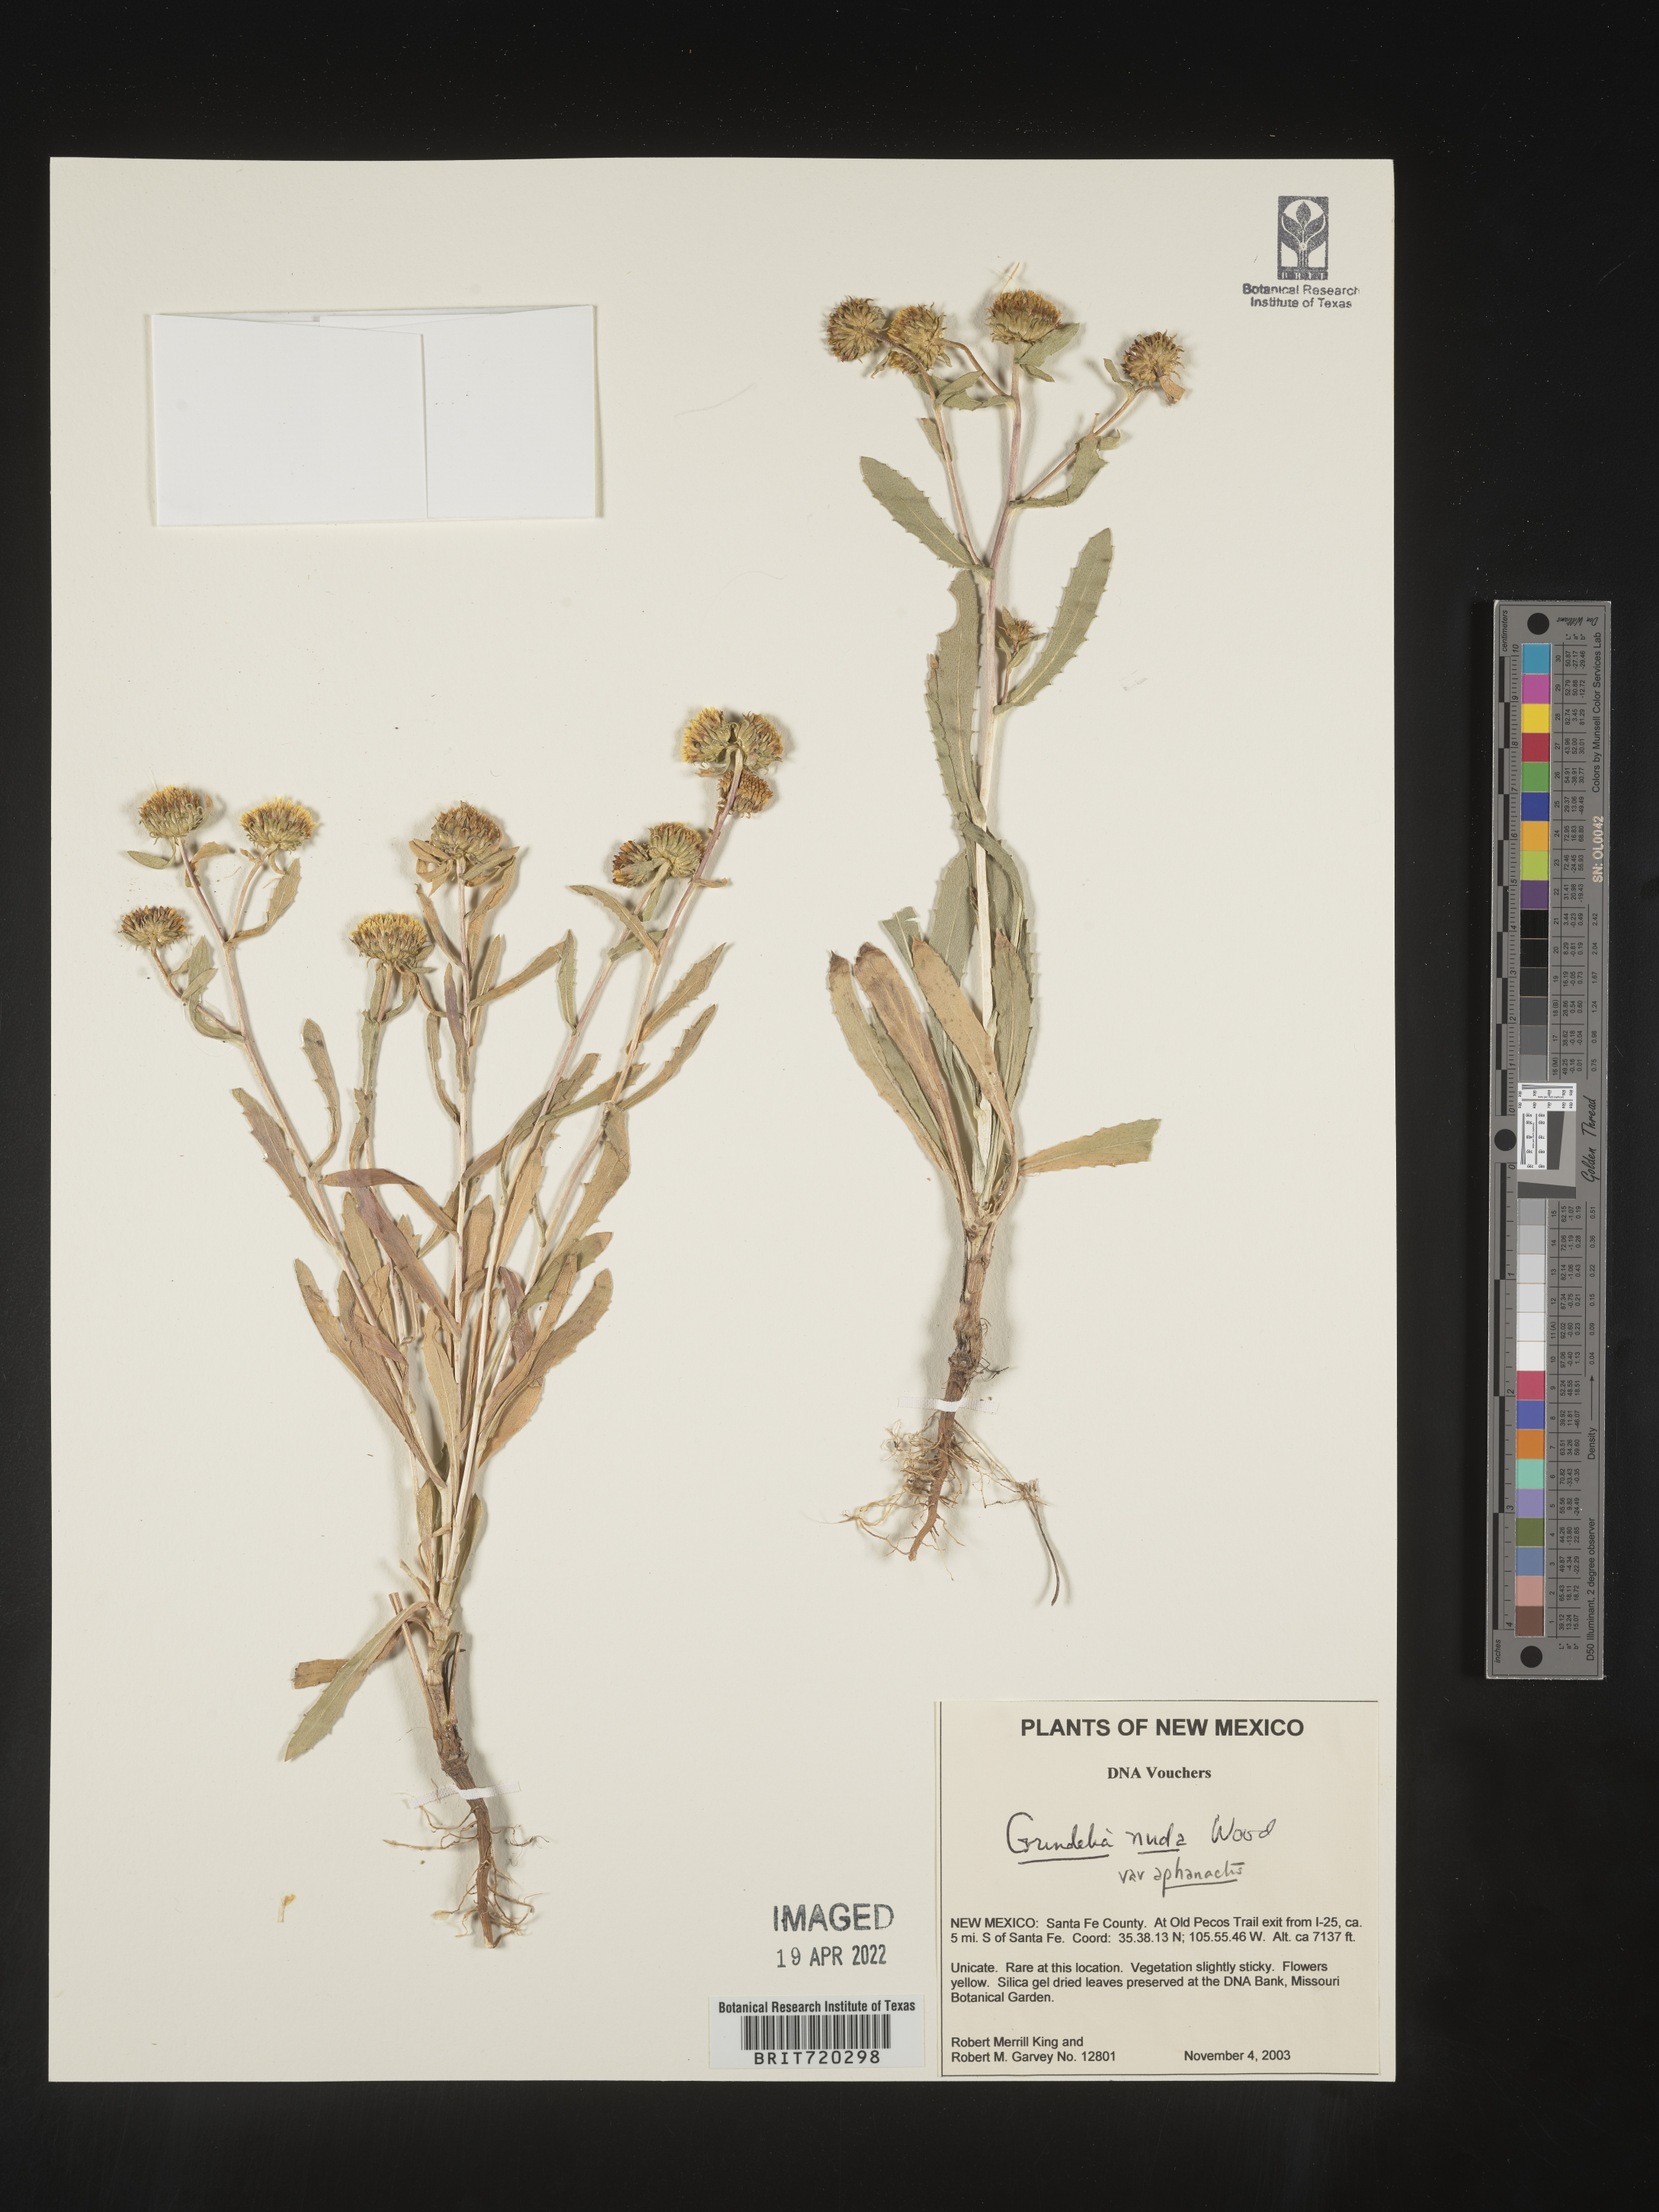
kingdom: Plantae
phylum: Tracheophyta
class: Magnoliopsida
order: Asterales
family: Asteraceae
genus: Grindelia
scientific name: Grindelia nuda
